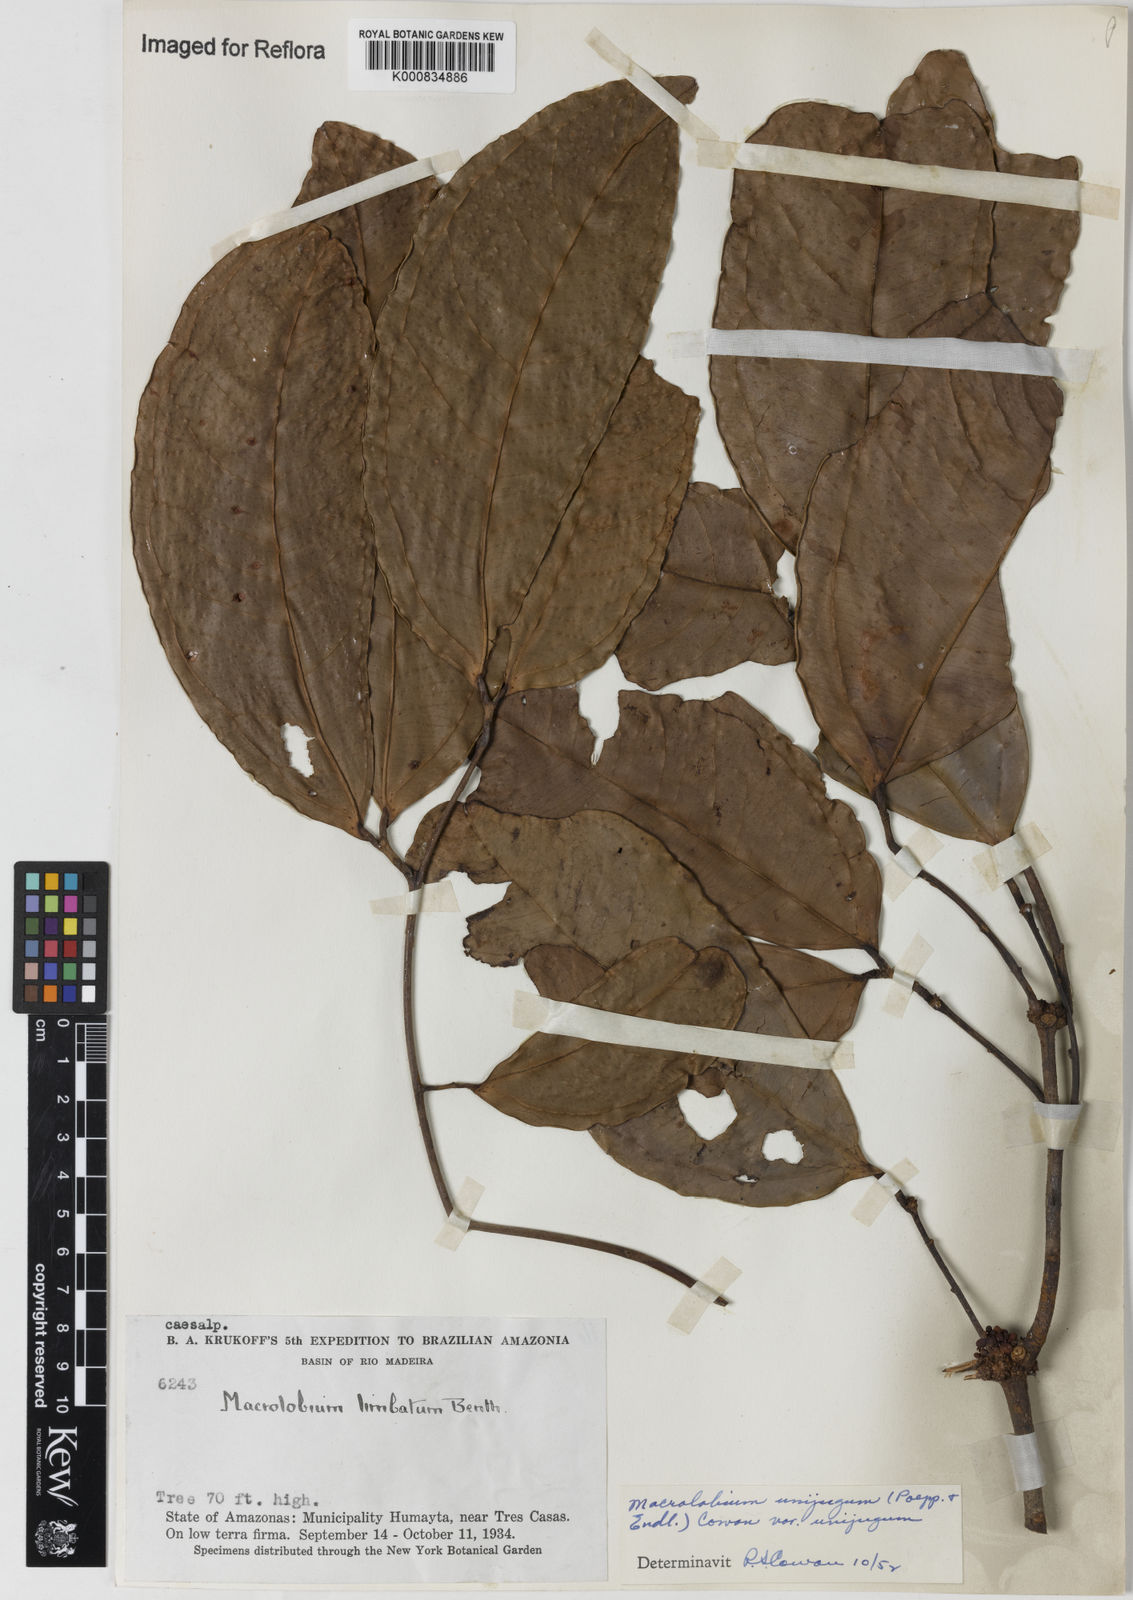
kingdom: Plantae
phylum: Tracheophyta
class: Magnoliopsida
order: Fabales
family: Fabaceae
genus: Macrolobium
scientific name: Macrolobium limbatum
